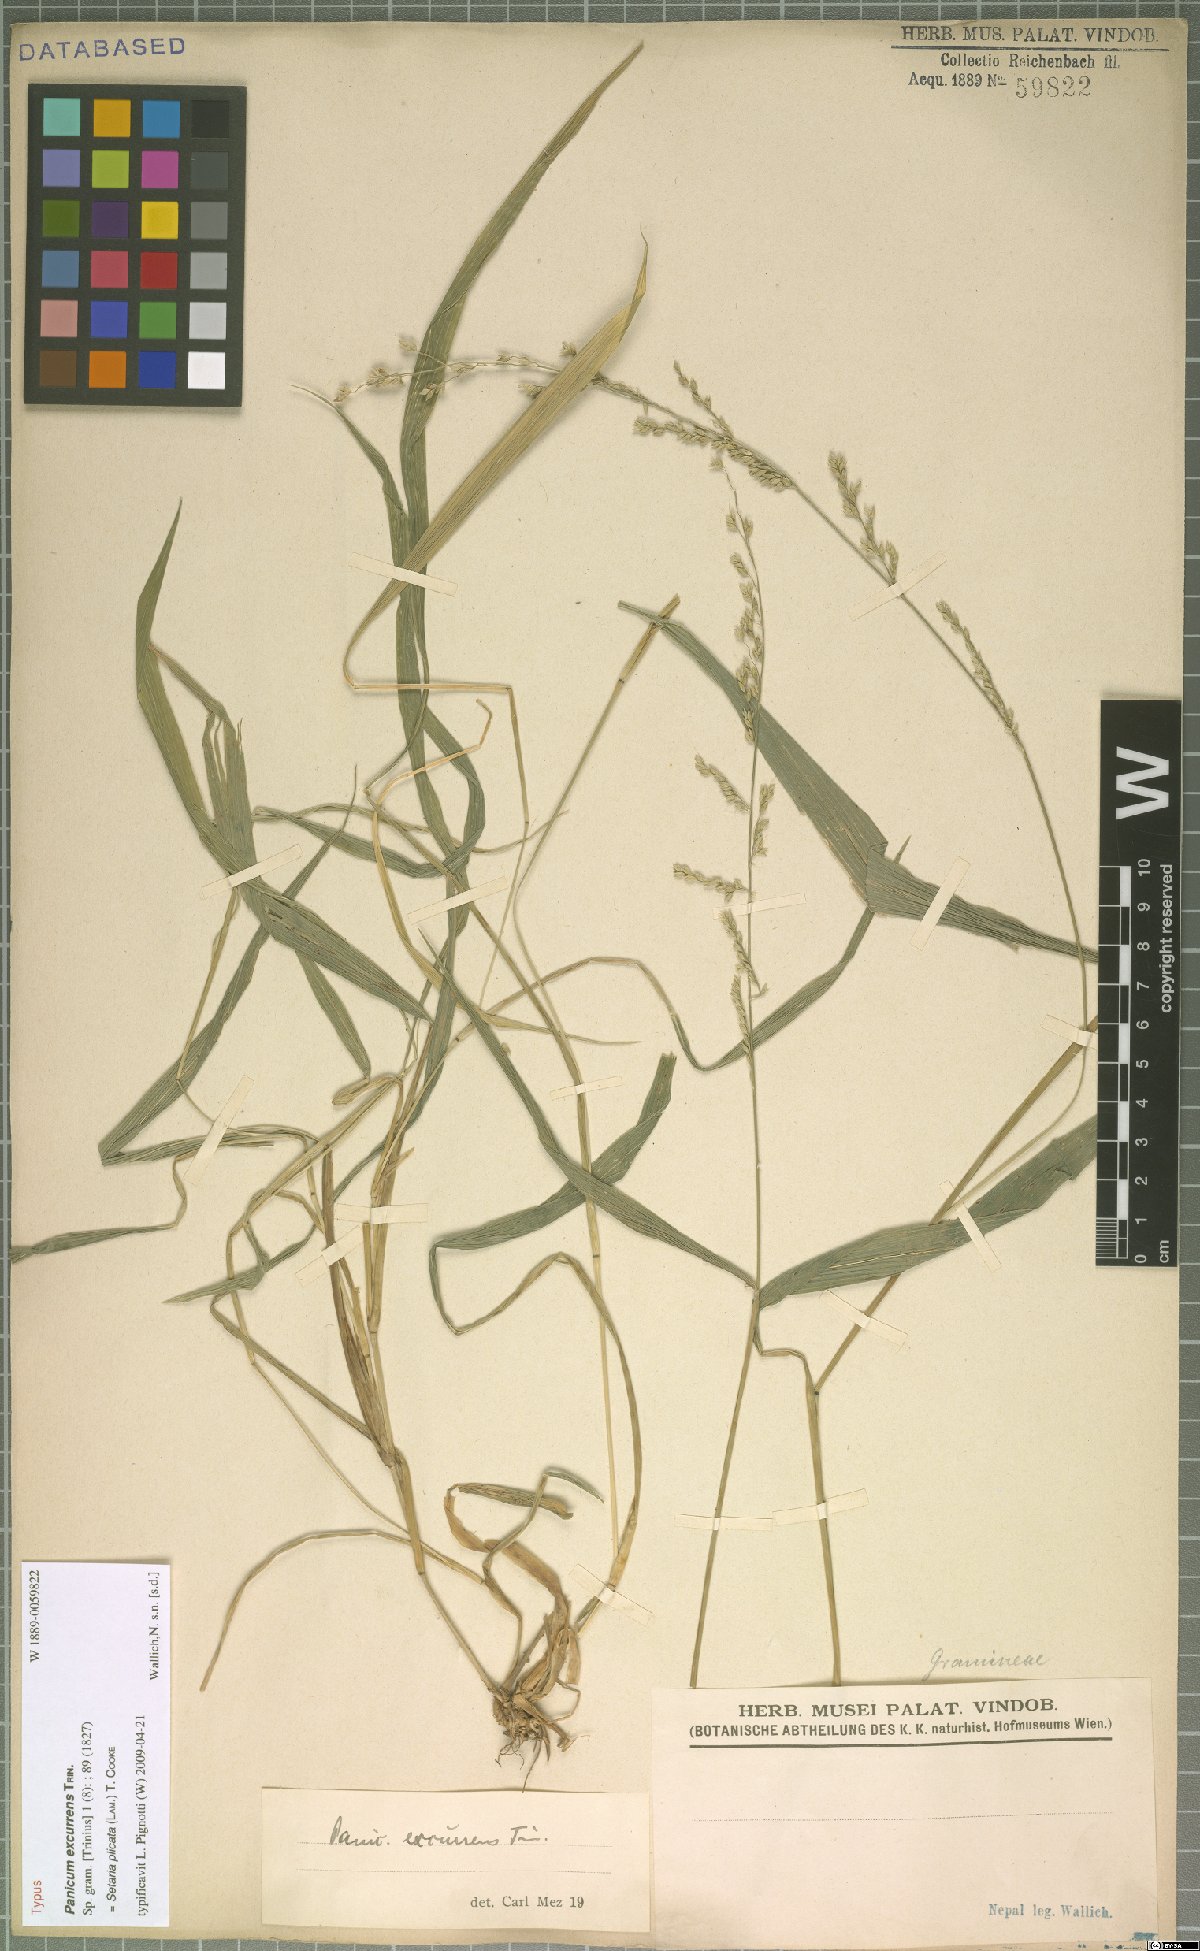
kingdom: Plantae
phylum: Tracheophyta
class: Liliopsida
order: Poales
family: Poaceae
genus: Setaria
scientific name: Setaria plicata
